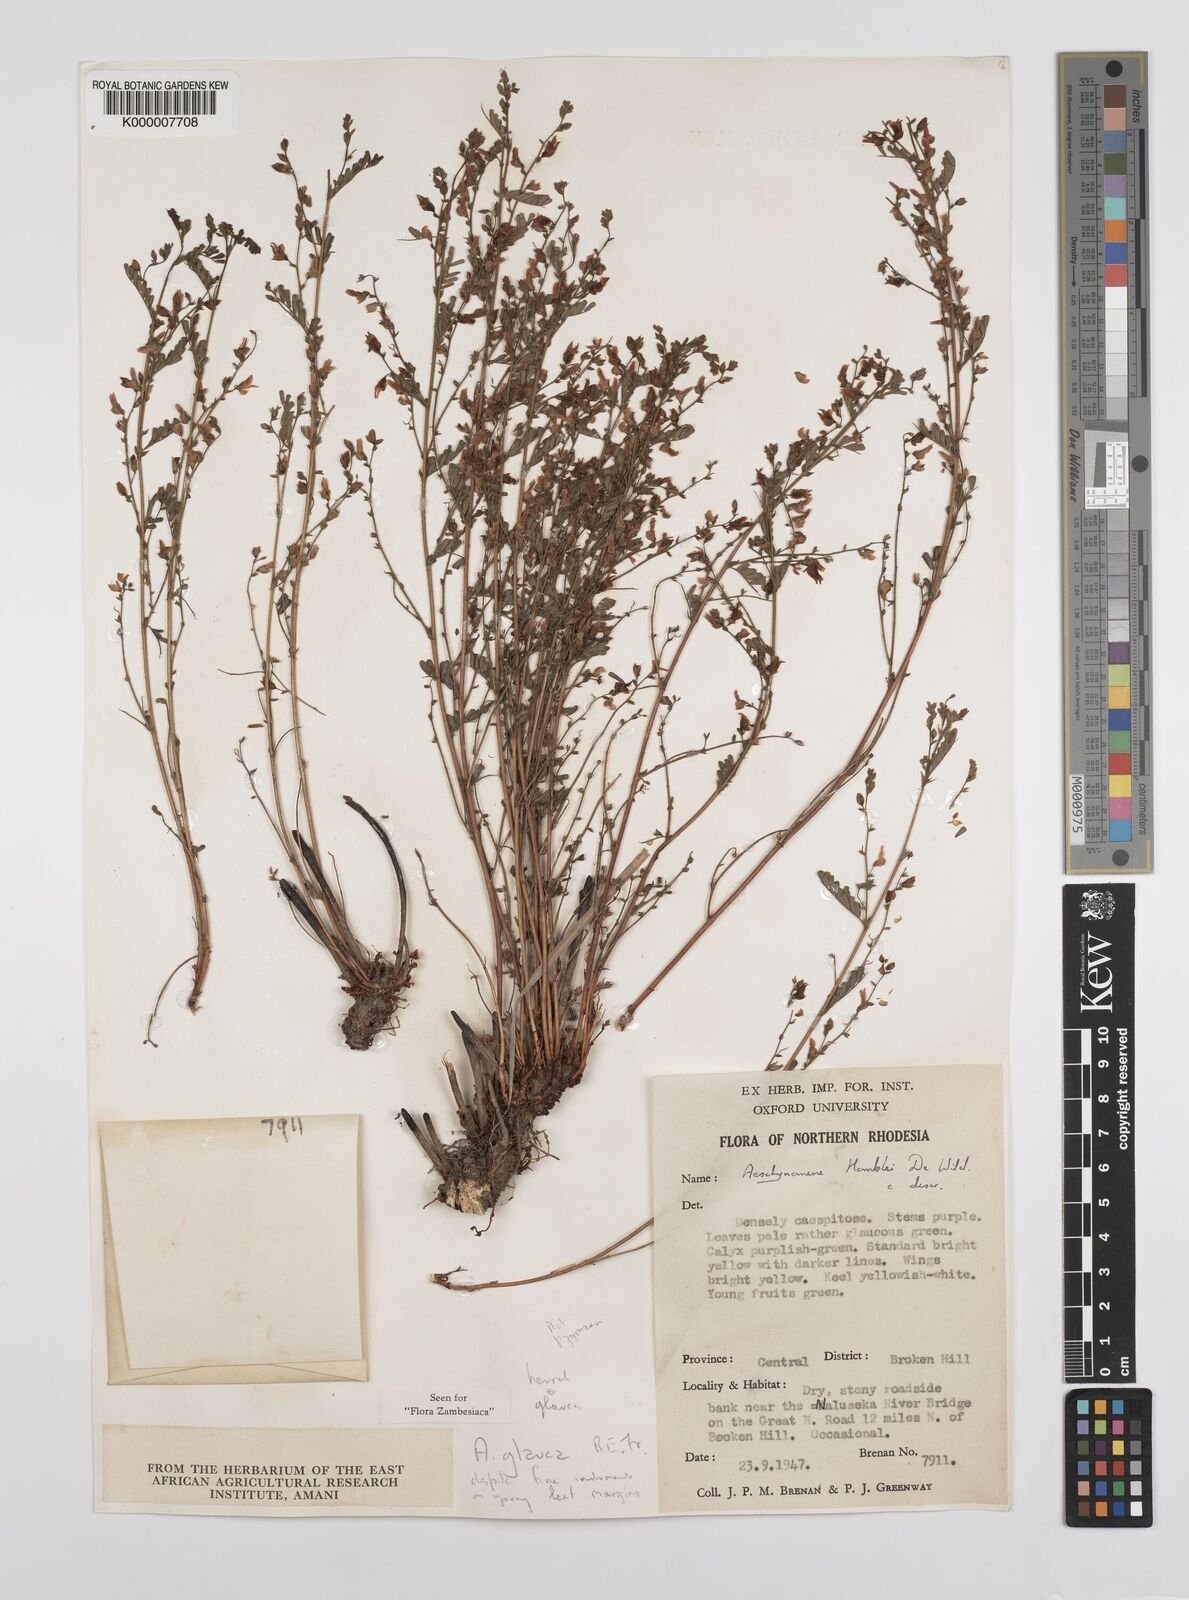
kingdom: Plantae
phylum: Tracheophyta
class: Magnoliopsida
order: Fabales
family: Fabaceae
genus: Aeschynomene
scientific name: Aeschynomene glauca
